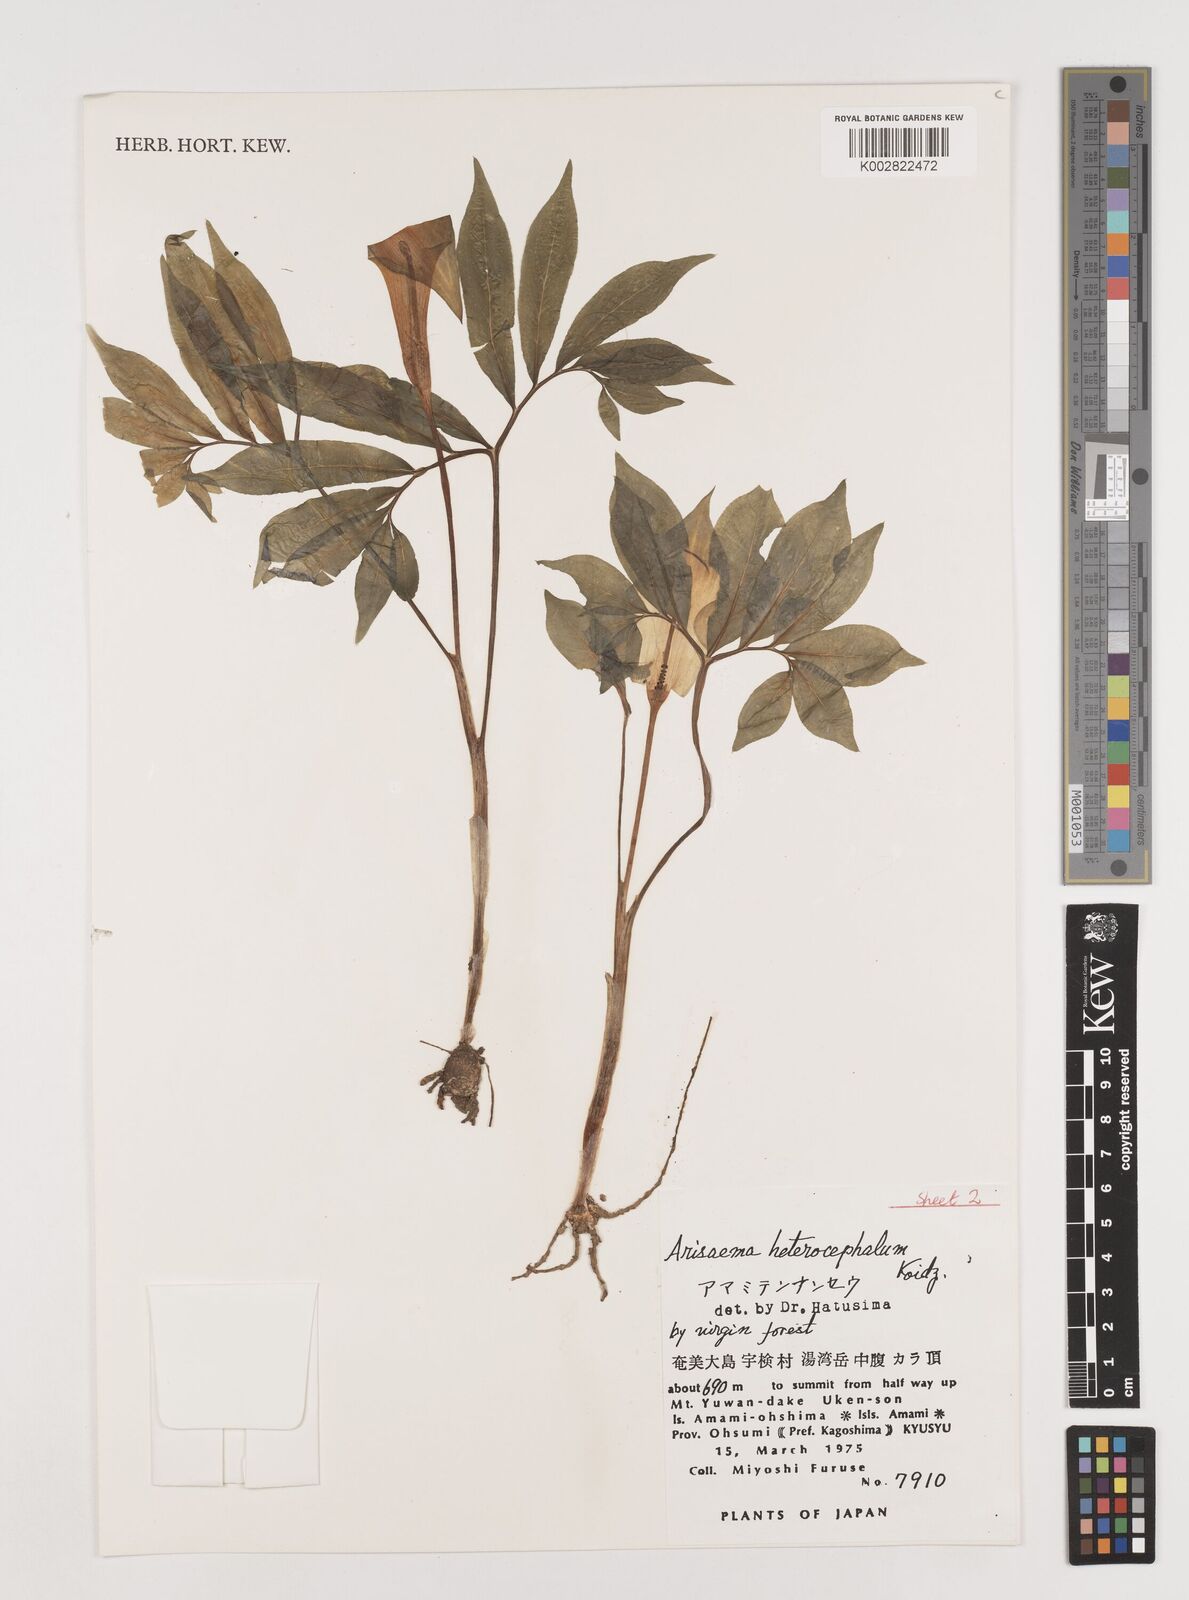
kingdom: Plantae
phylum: Tracheophyta
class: Liliopsida
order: Alismatales
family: Araceae
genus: Arisaema
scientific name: Arisaema heterocephalum
